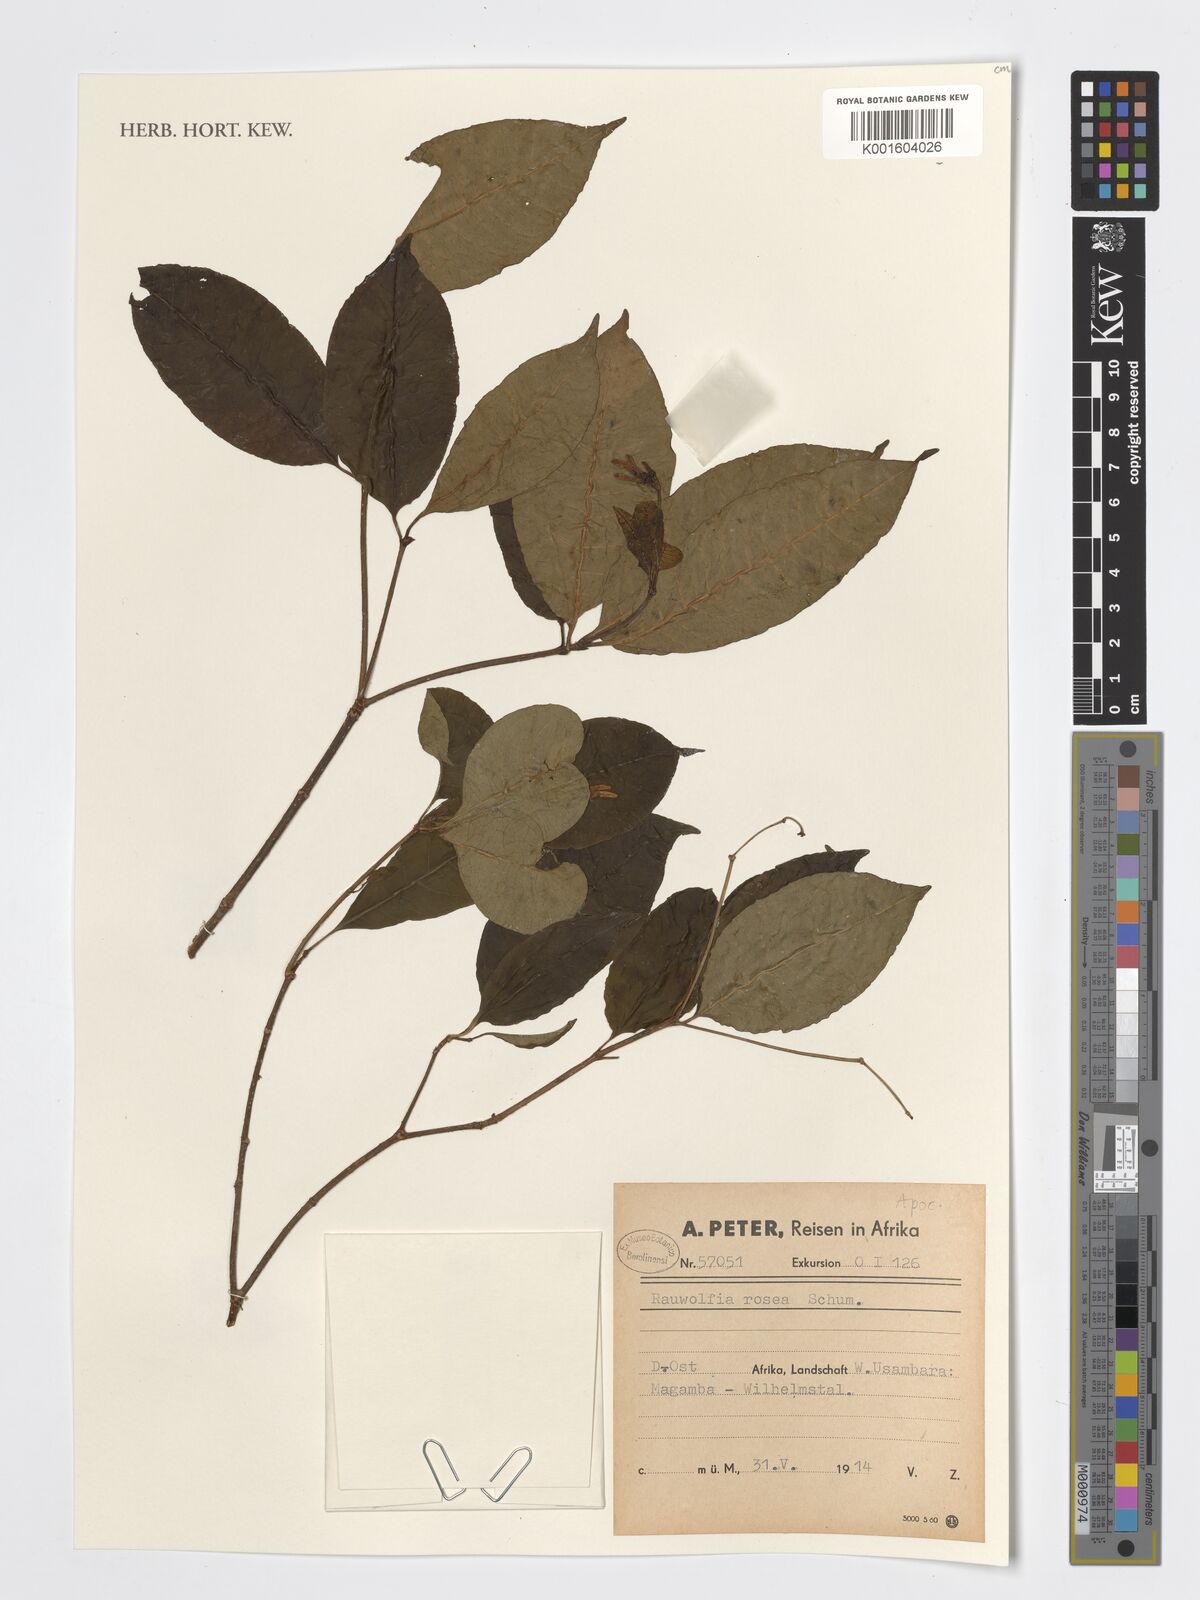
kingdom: Plantae
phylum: Tracheophyta
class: Magnoliopsida
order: Gentianales
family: Apocynaceae
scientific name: Apocynaceae
